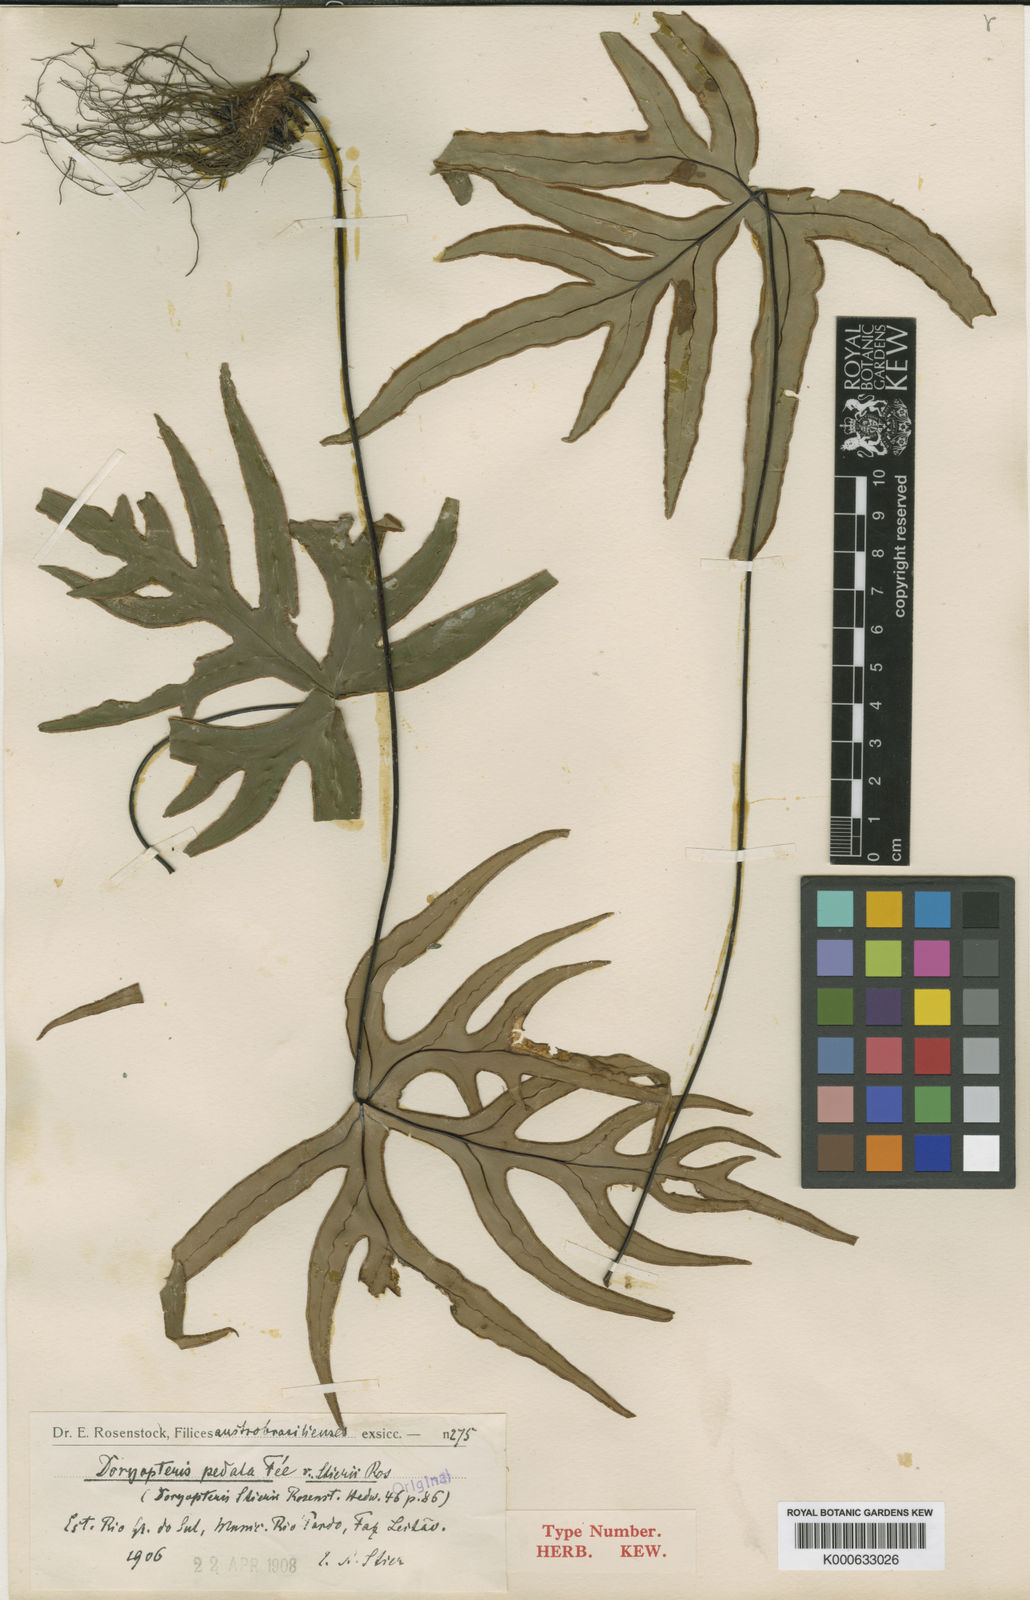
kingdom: Plantae
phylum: Tracheophyta
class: Polypodiopsida
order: Polypodiales
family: Pteridaceae
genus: Doryopteris
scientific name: Doryopteris
